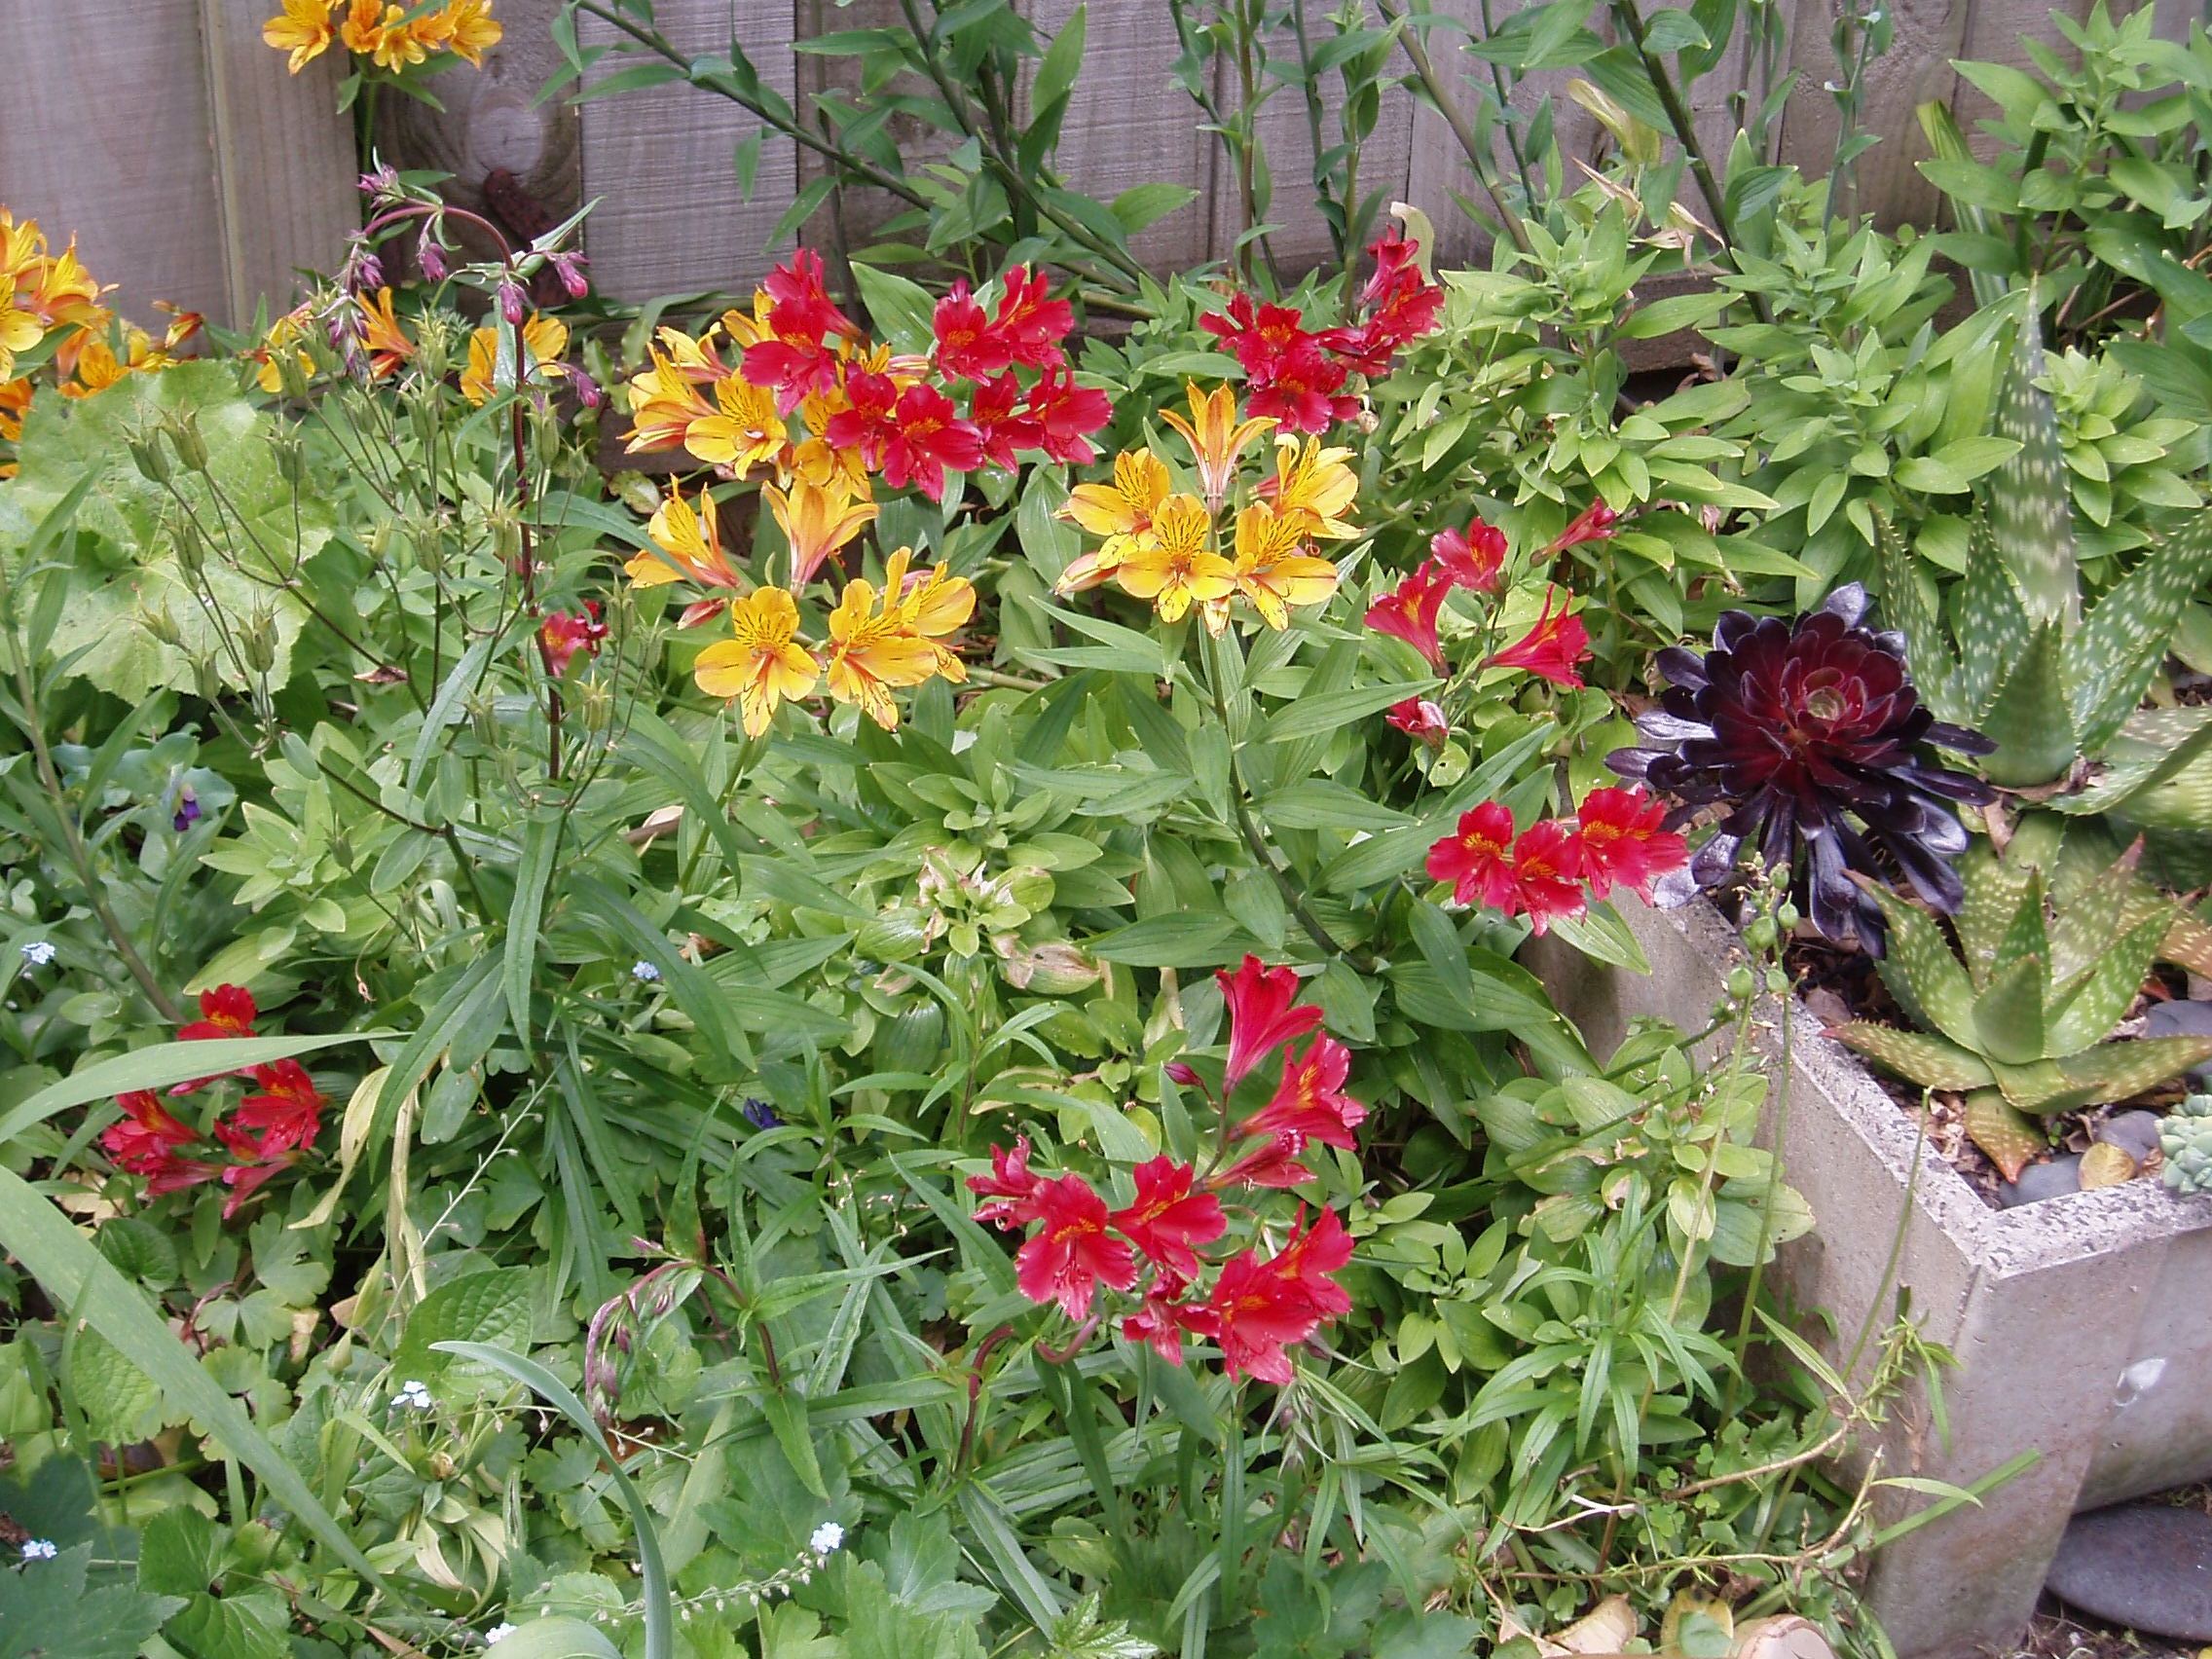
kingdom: Plantae
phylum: Tracheophyta
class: Liliopsida
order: Liliales
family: Alstroemeriaceae
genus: Alstroemeria
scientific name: Alstroemeria
